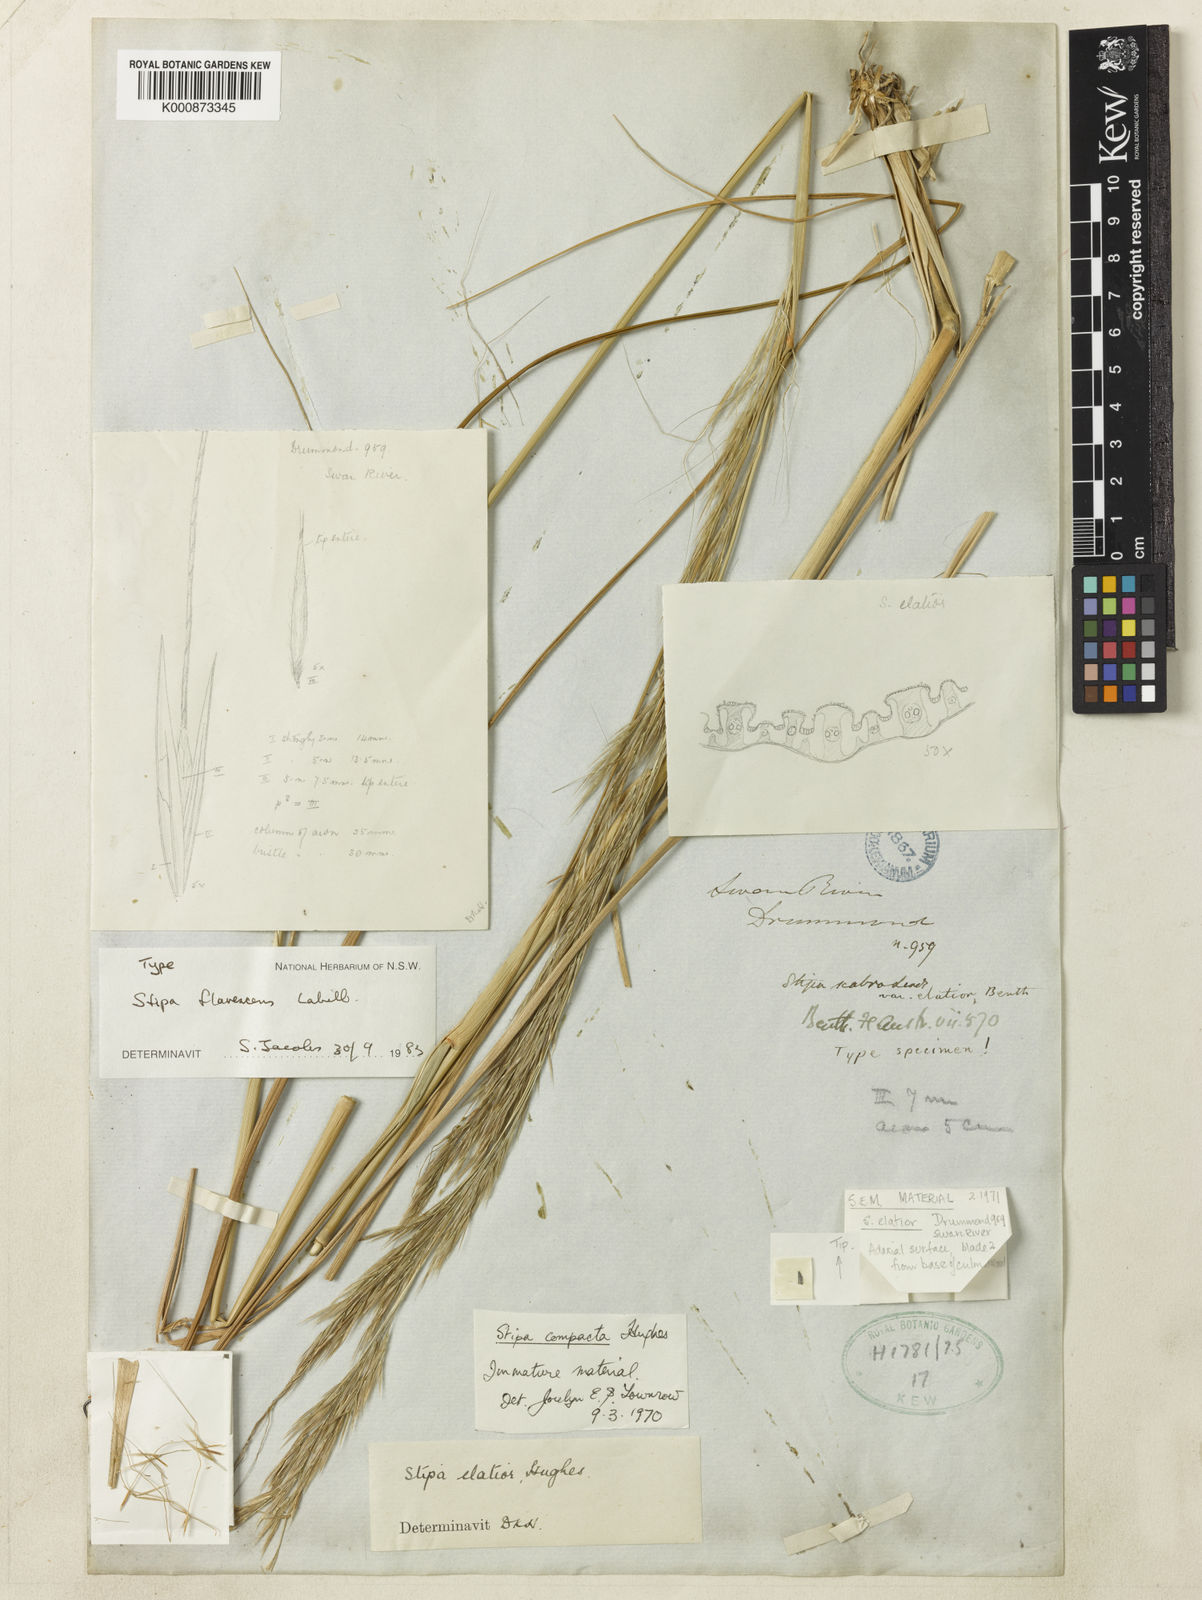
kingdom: Plantae
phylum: Tracheophyta
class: Liliopsida
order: Poales
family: Poaceae
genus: Austrostipa
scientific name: Austrostipa flavescens
